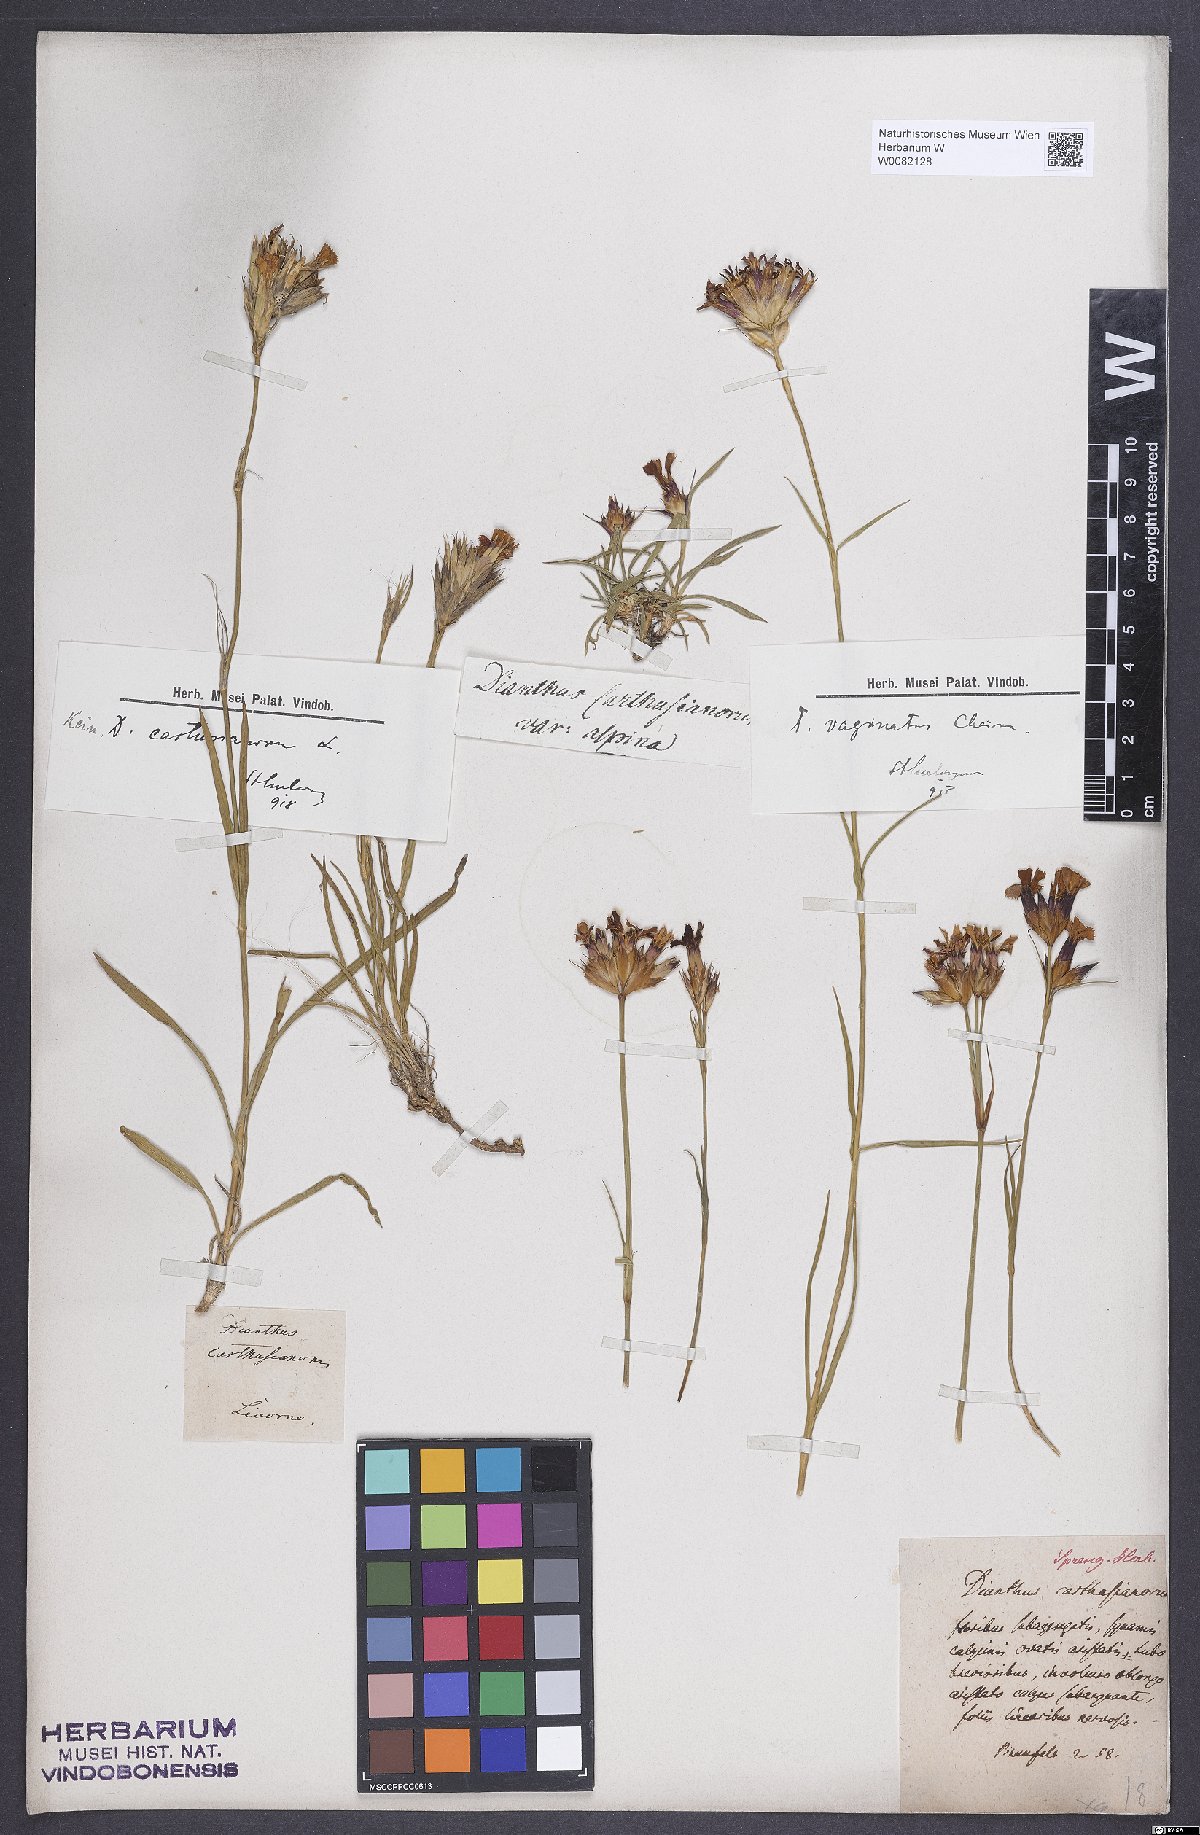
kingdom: Plantae
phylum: Tracheophyta
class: Magnoliopsida
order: Caryophyllales
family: Caryophyllaceae
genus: Dianthus
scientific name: Dianthus carthusianorum
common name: Carthusian pink
